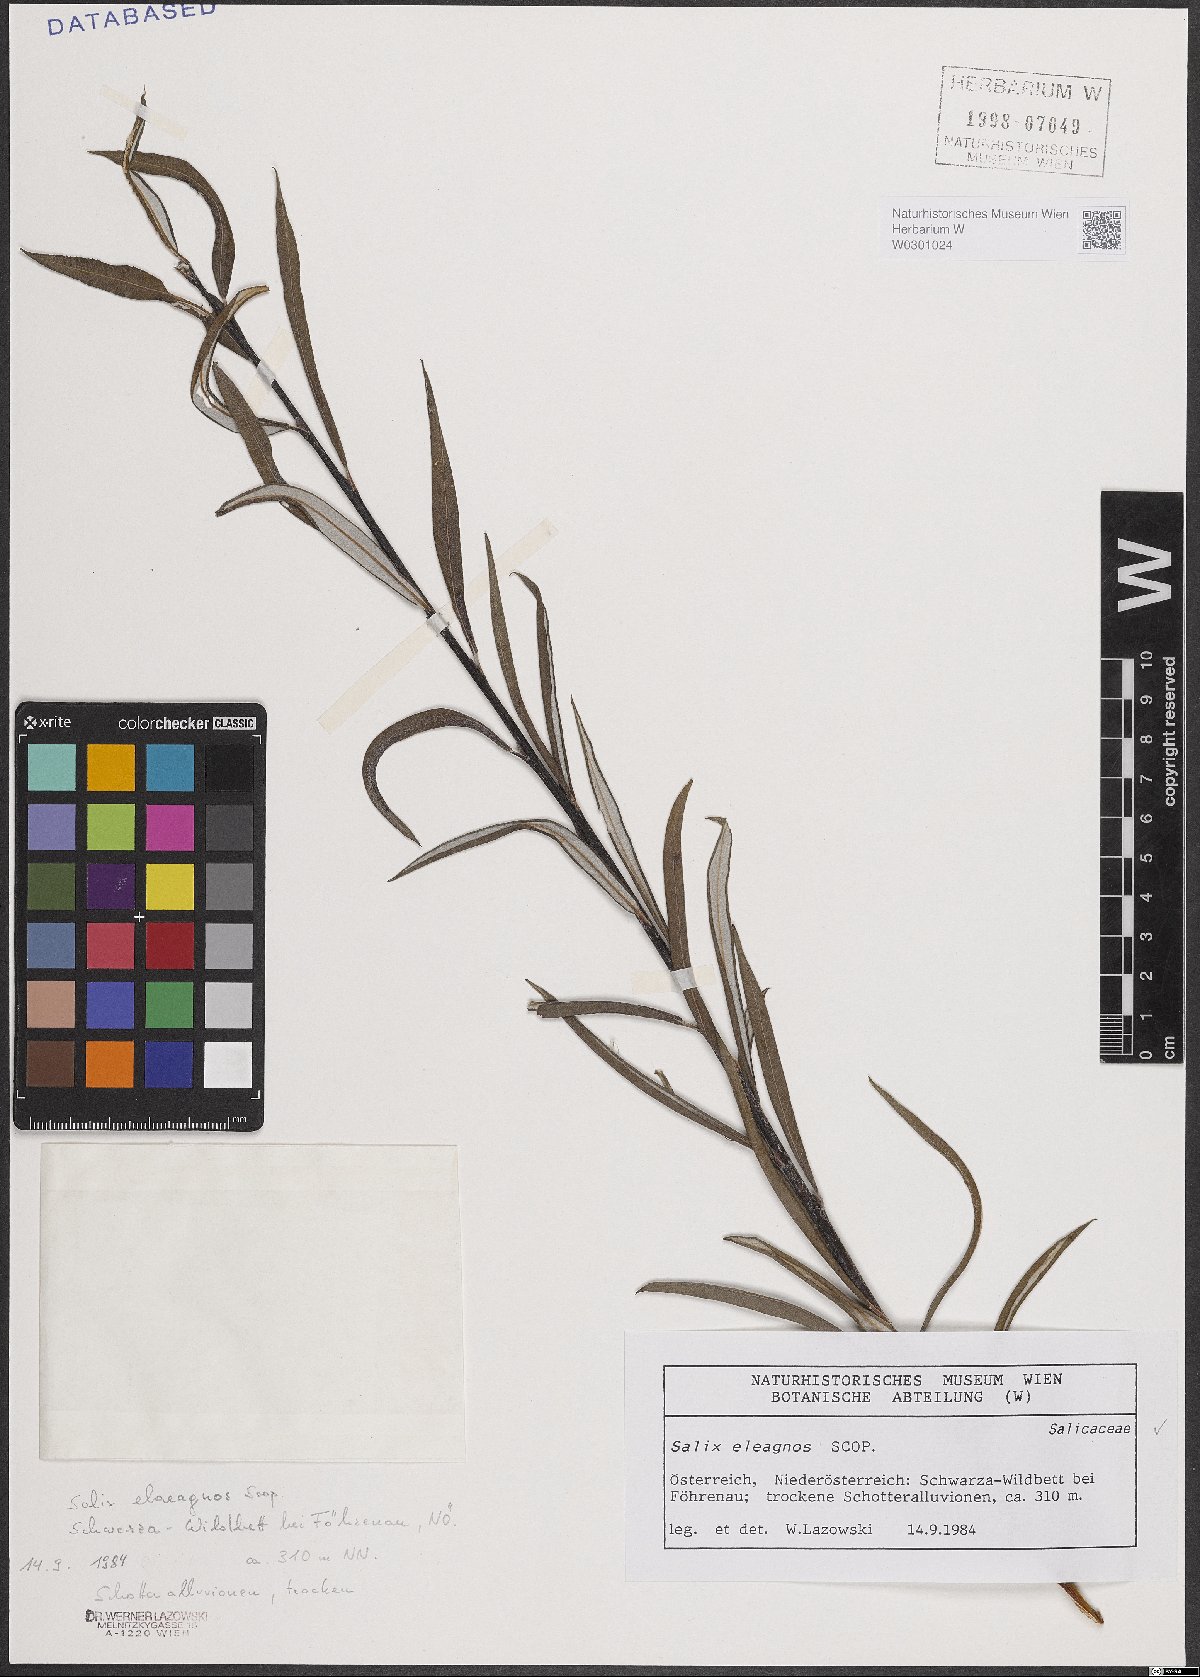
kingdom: Plantae
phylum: Tracheophyta
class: Magnoliopsida
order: Malpighiales
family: Salicaceae
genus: Salix
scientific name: Salix eleagnos
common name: Elaeagnus willow
